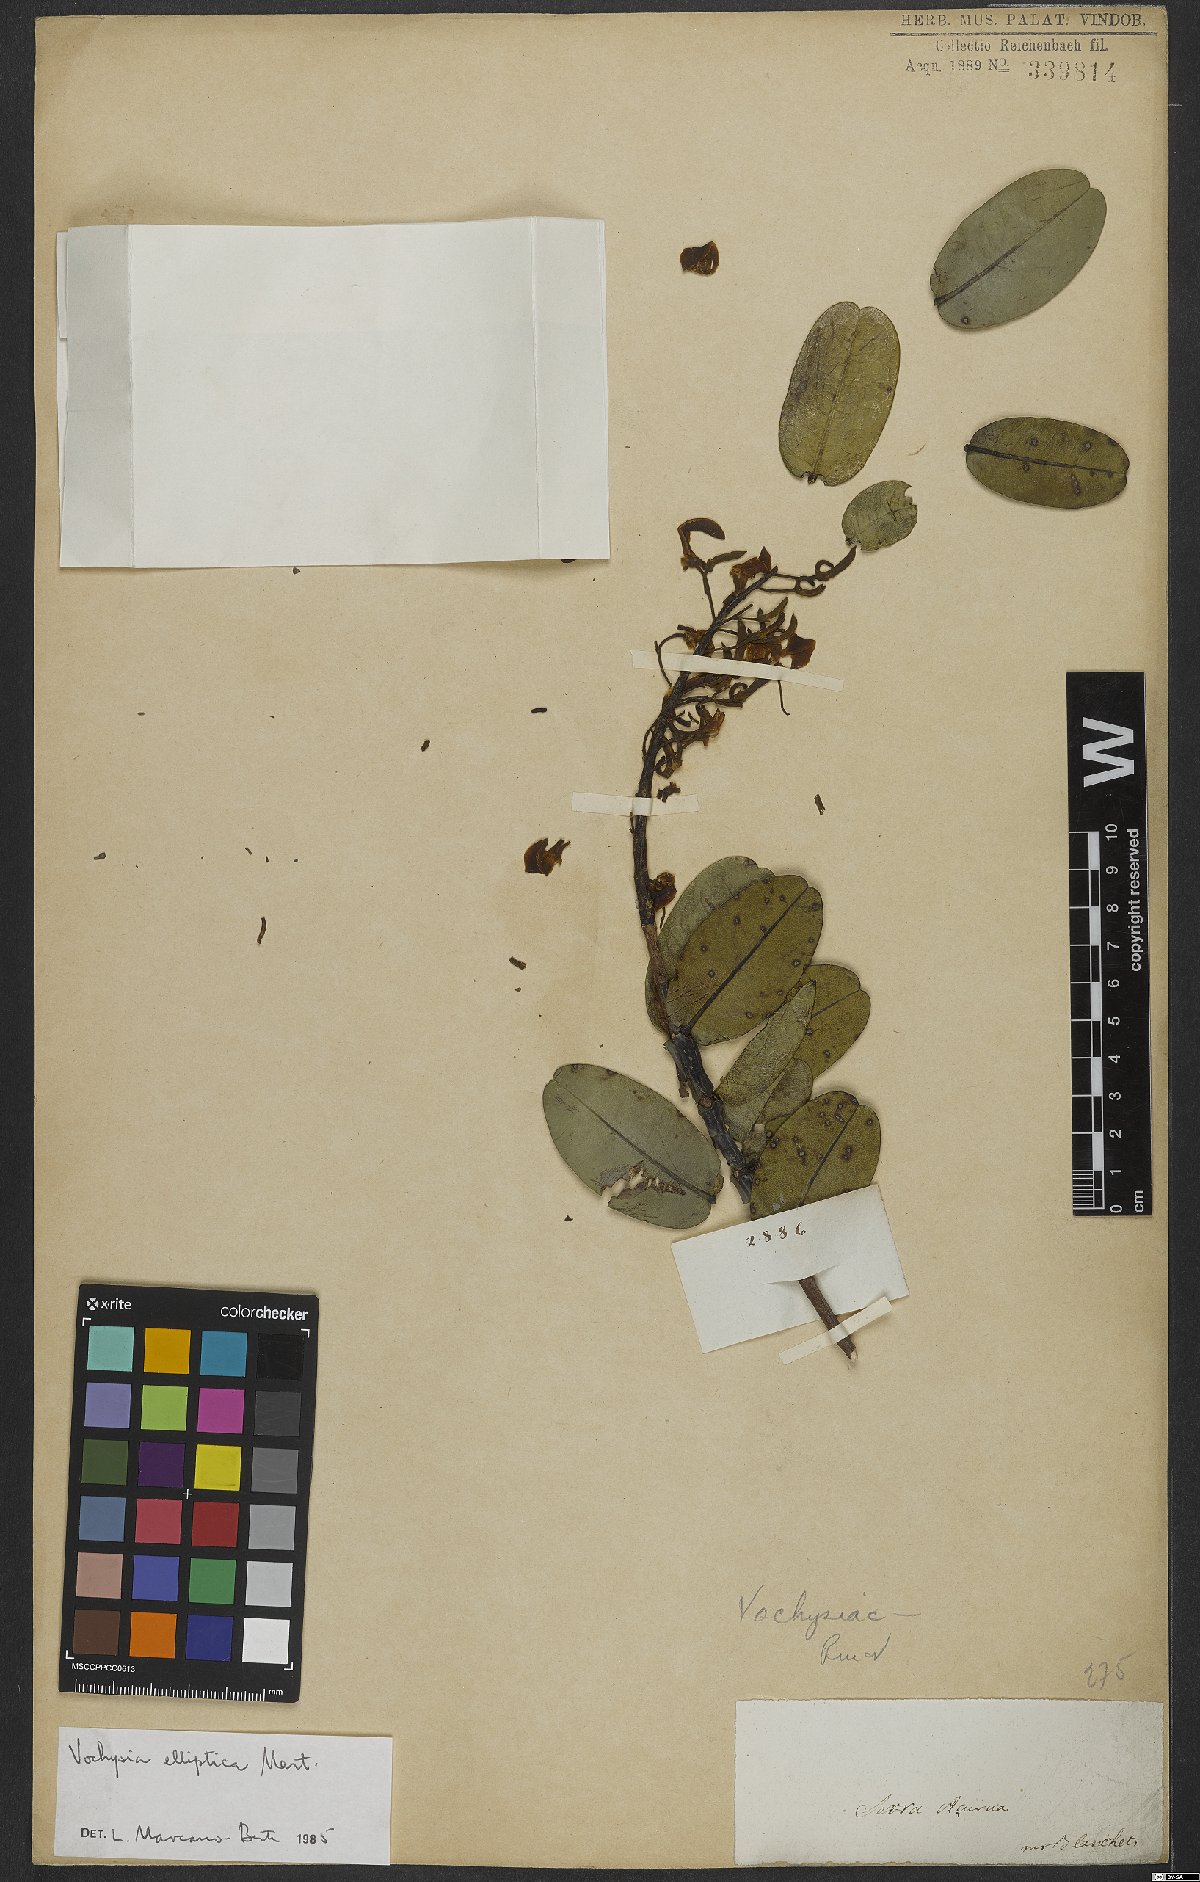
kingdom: Plantae
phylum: Tracheophyta
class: Magnoliopsida
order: Myrtales
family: Vochysiaceae
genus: Vochysia
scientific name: Vochysia elliptica
